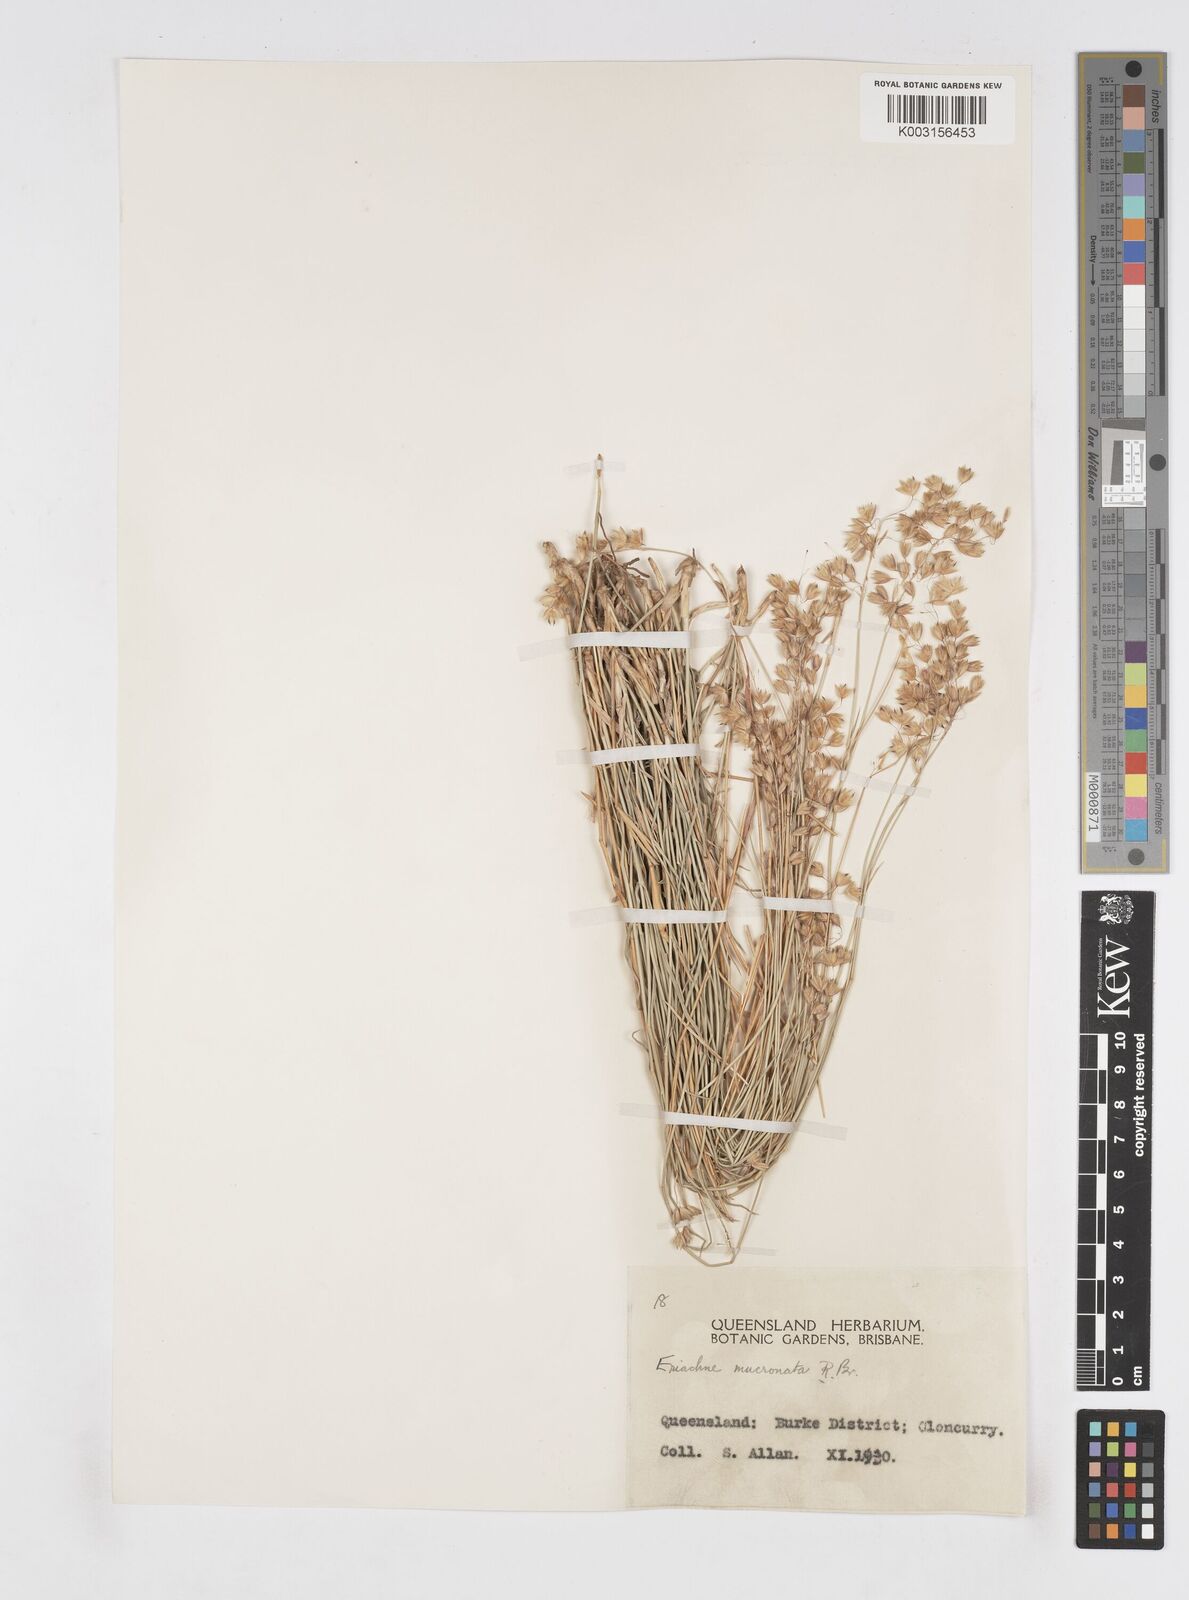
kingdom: Plantae
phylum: Tracheophyta
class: Liliopsida
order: Poales
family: Poaceae
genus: Eriachne
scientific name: Eriachne mucronata
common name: Mountain wanderrie grass
